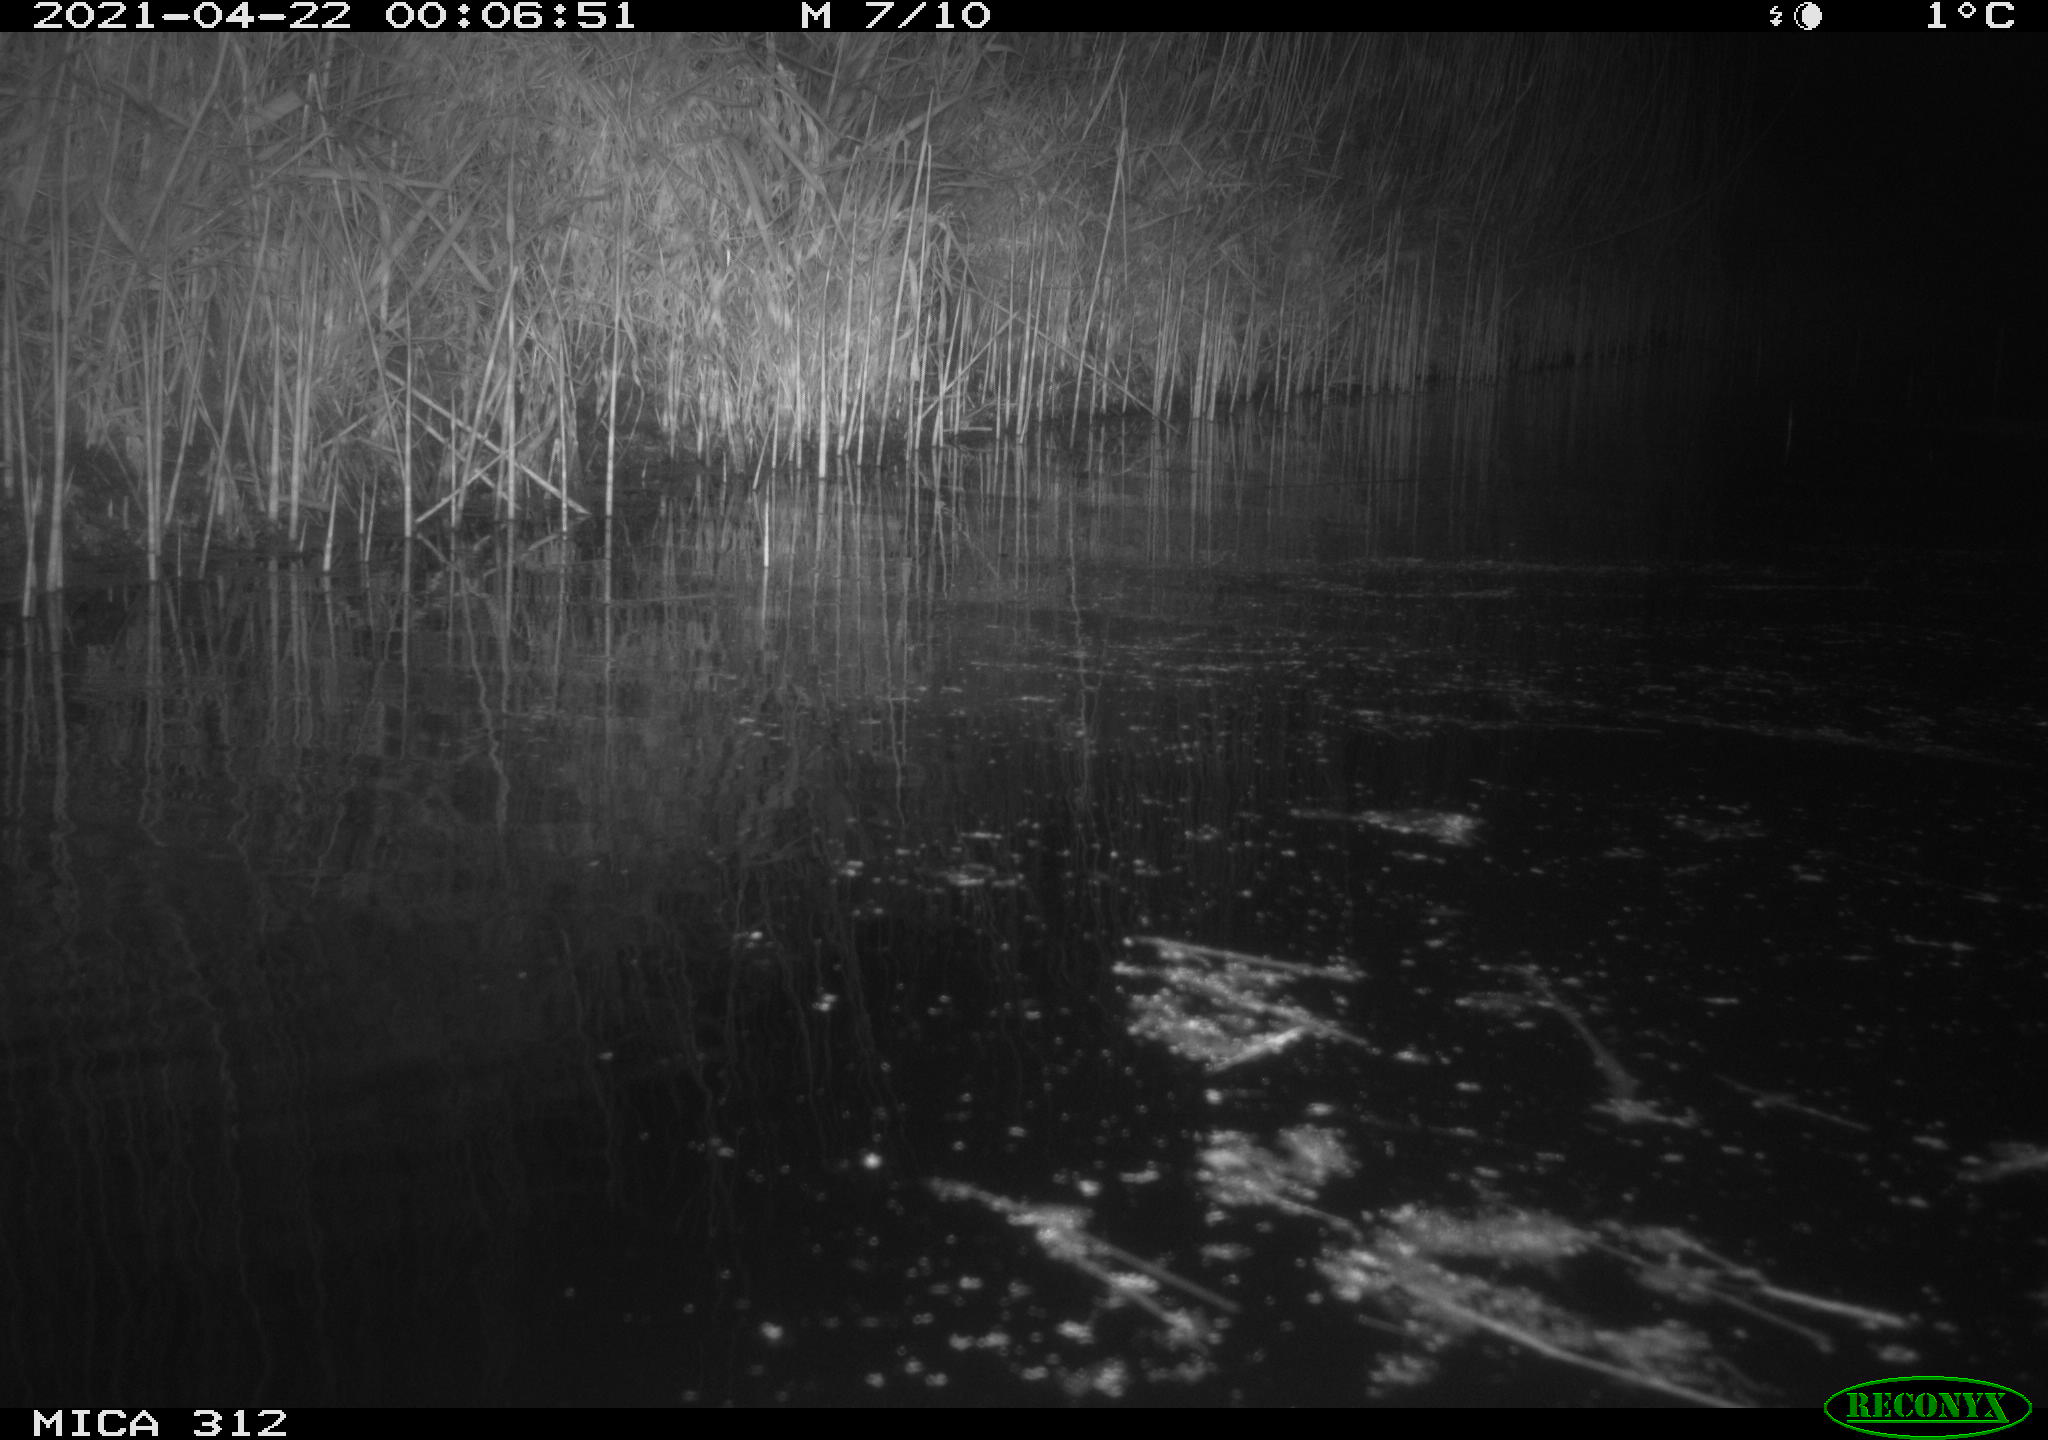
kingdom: Animalia
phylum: Chordata
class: Aves
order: Gruiformes
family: Rallidae
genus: Fulica
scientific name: Fulica atra
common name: Eurasian coot
